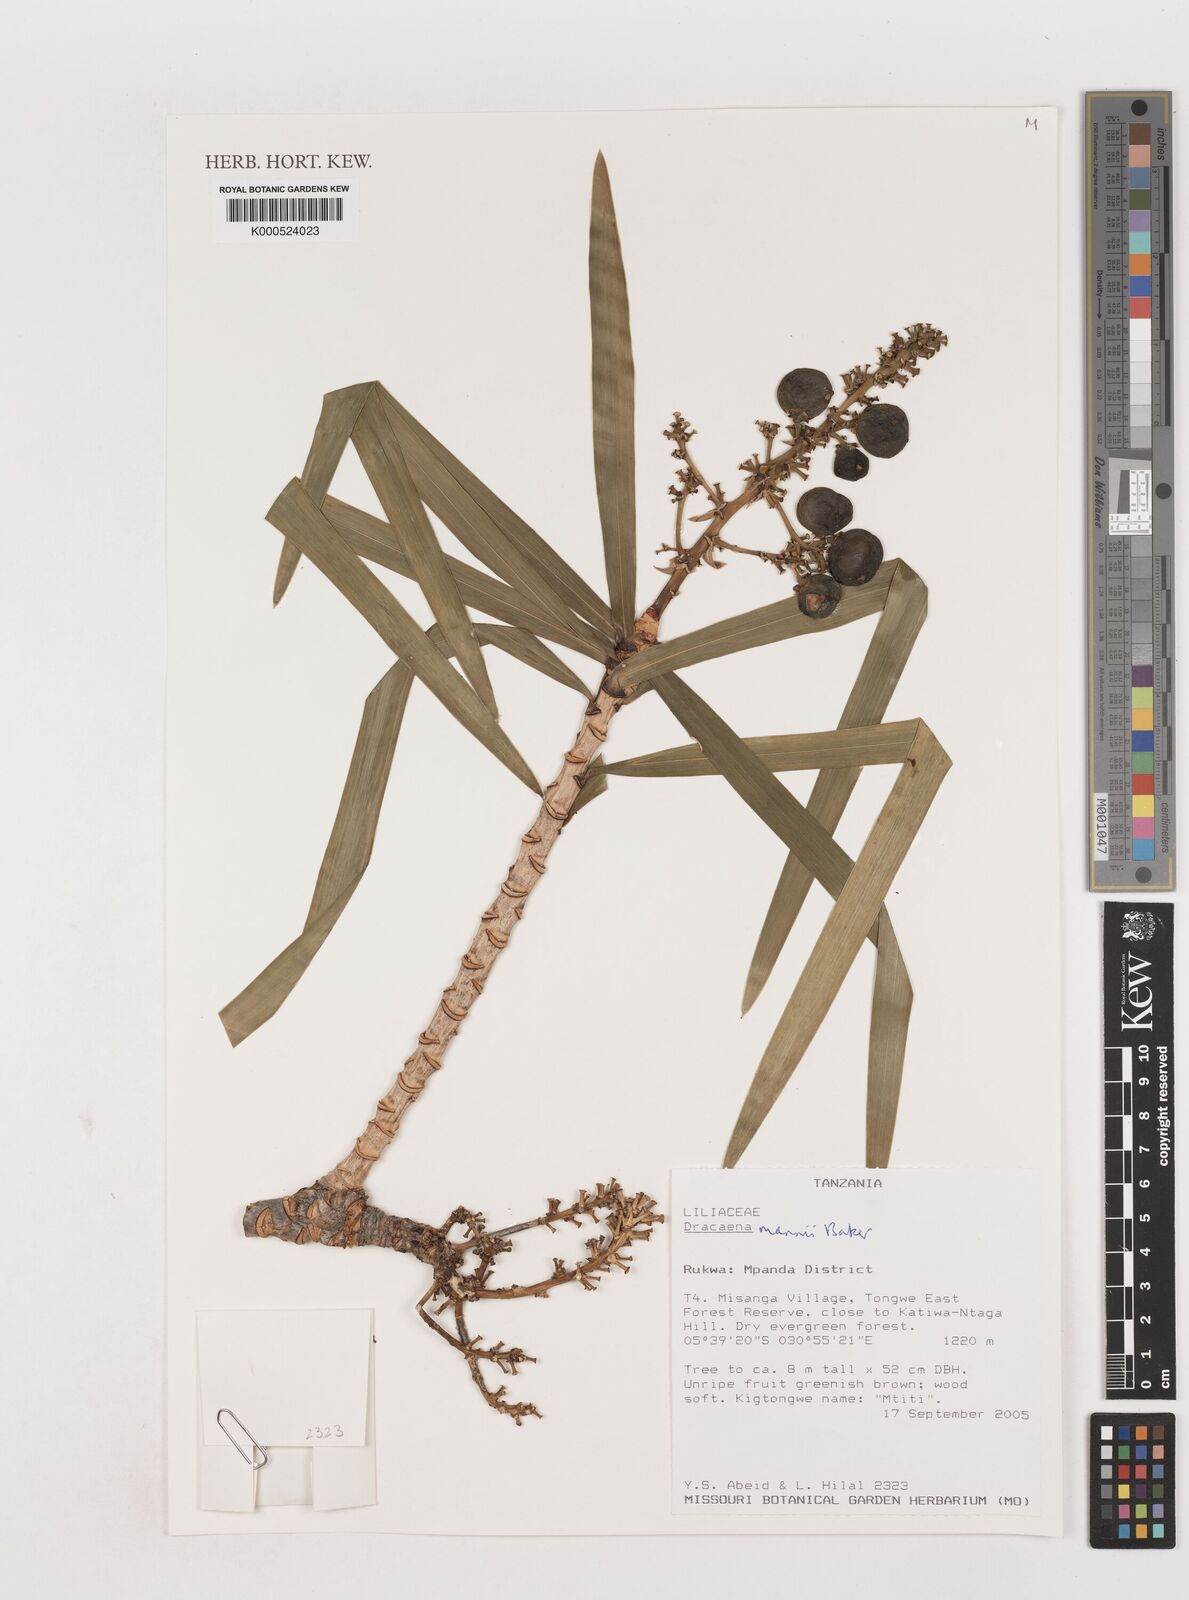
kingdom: Plantae
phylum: Tracheophyta
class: Liliopsida
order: Asparagales
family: Asparagaceae
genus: Dracaena
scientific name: Dracaena mannii
